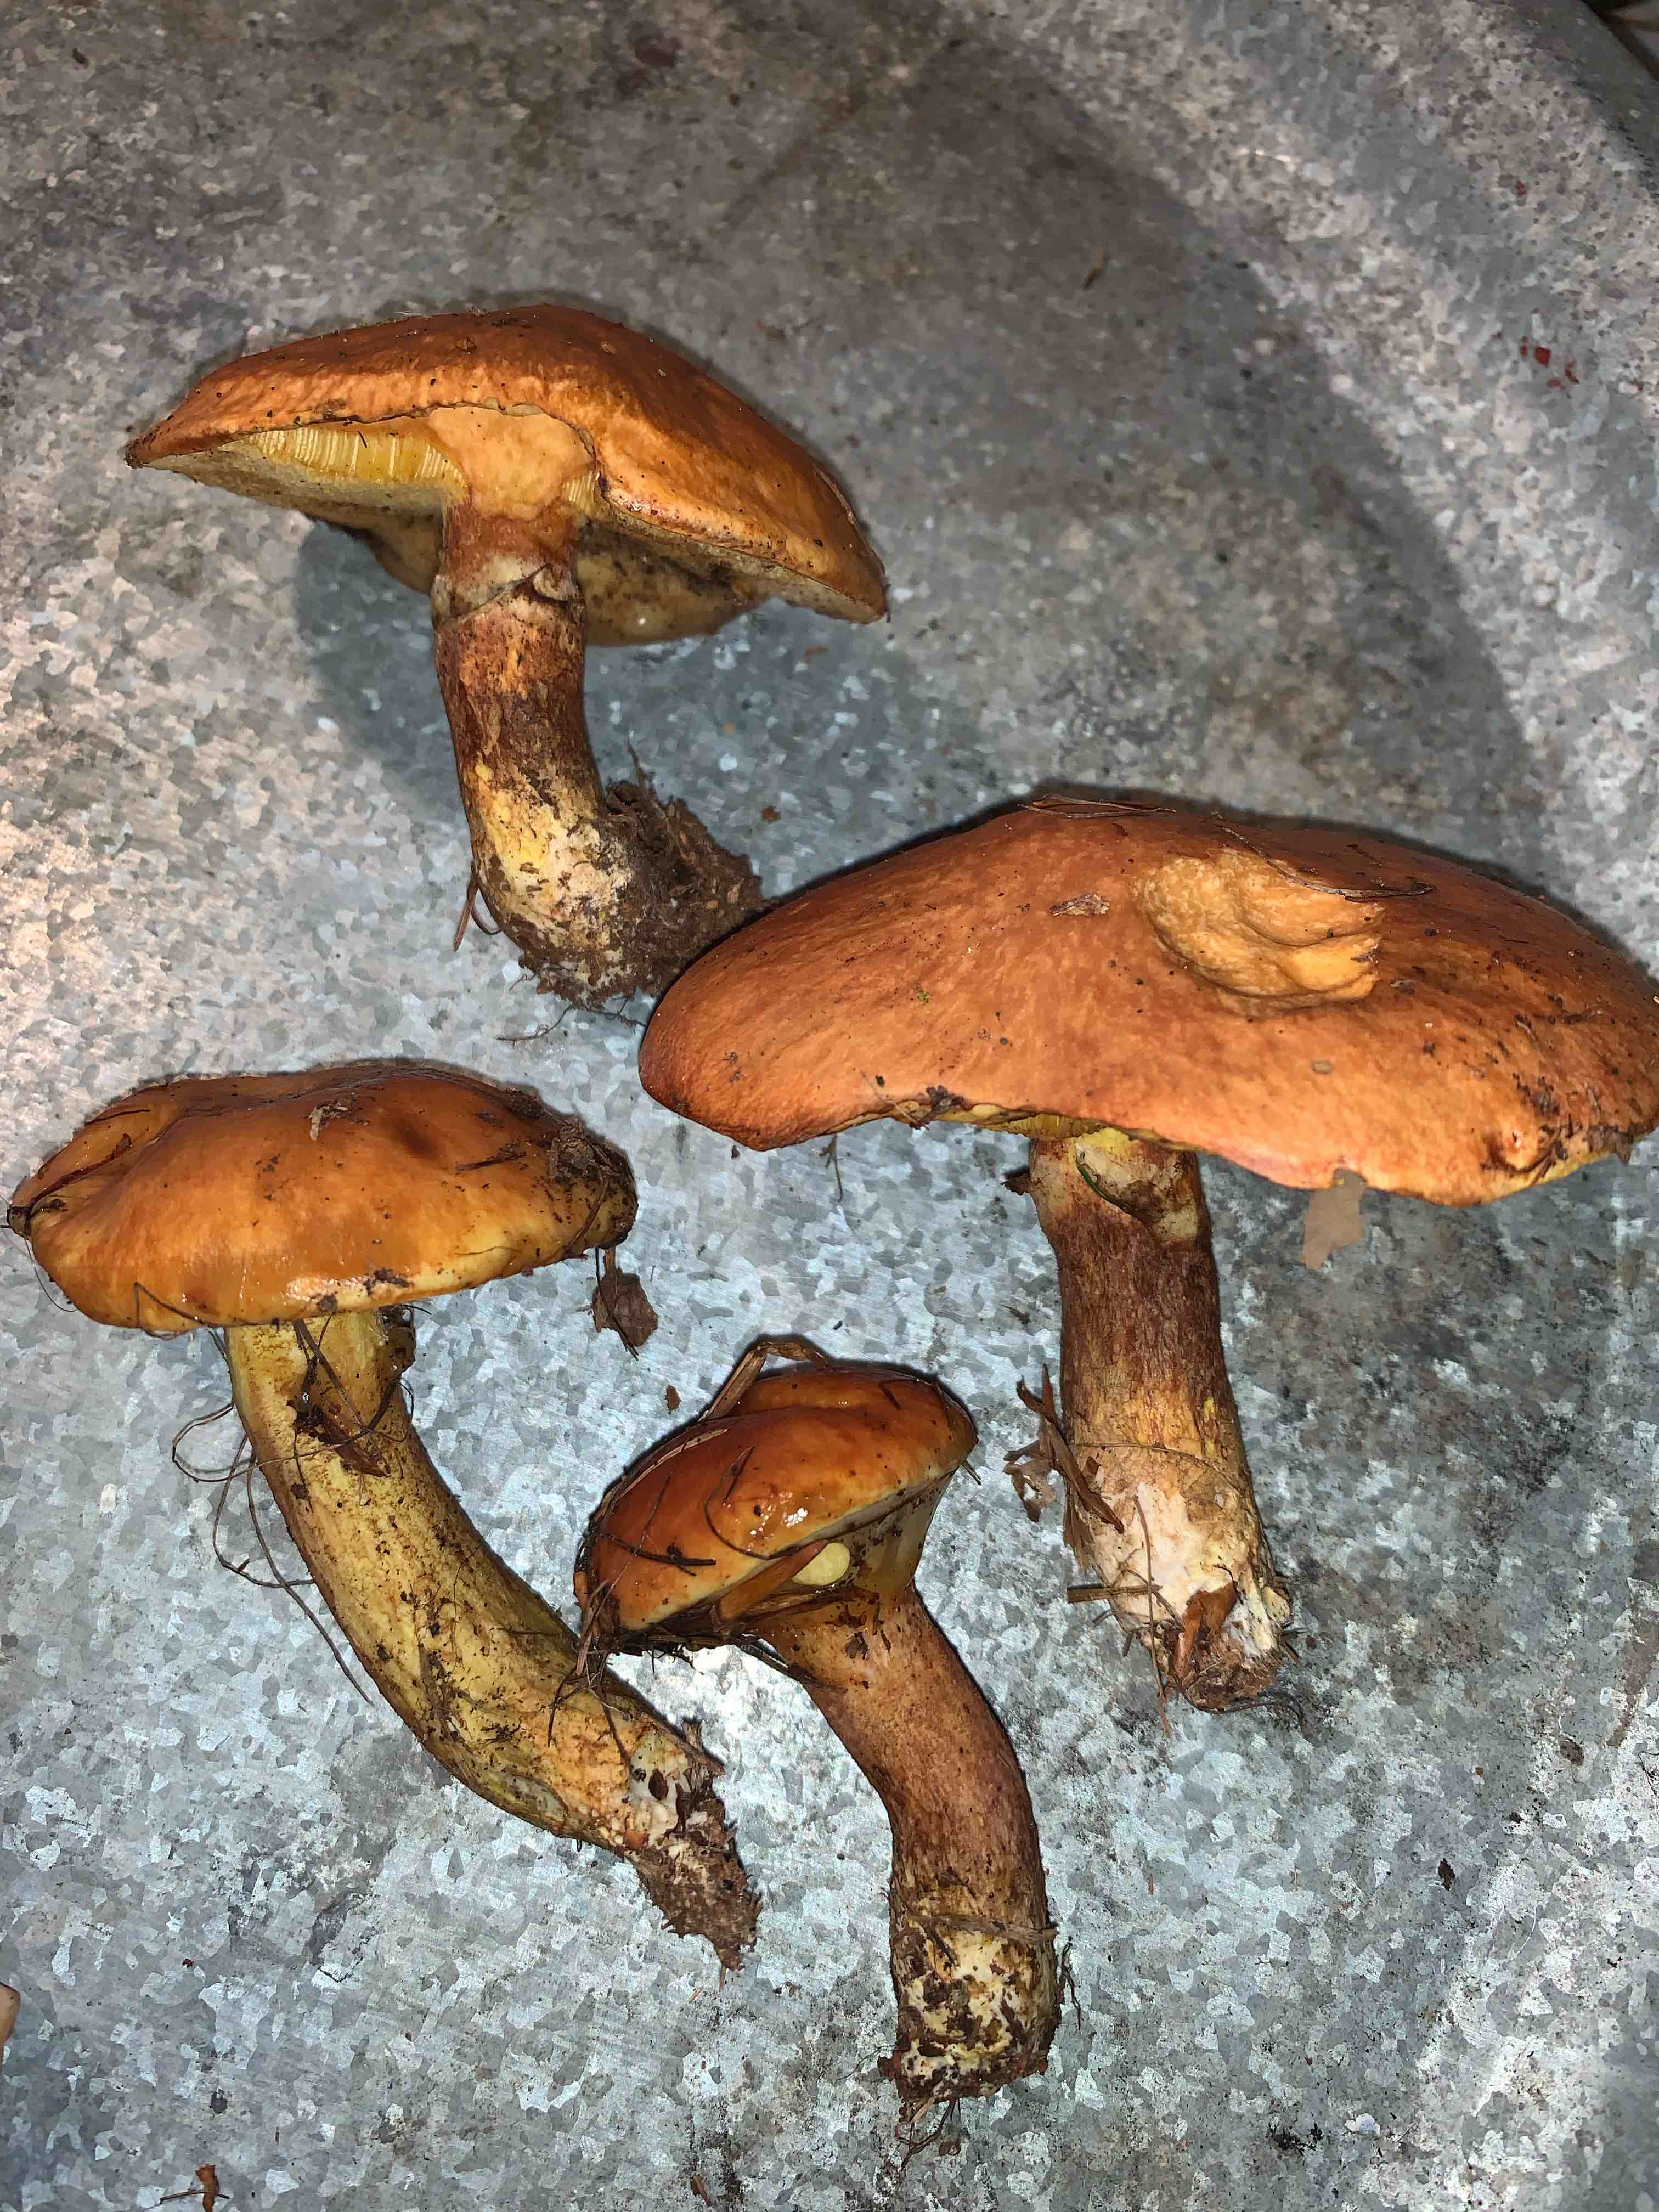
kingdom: Fungi
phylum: Basidiomycota
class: Agaricomycetes
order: Boletales
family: Suillaceae
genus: Suillus
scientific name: Suillus grevillei
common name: lærke-slimrørhat
